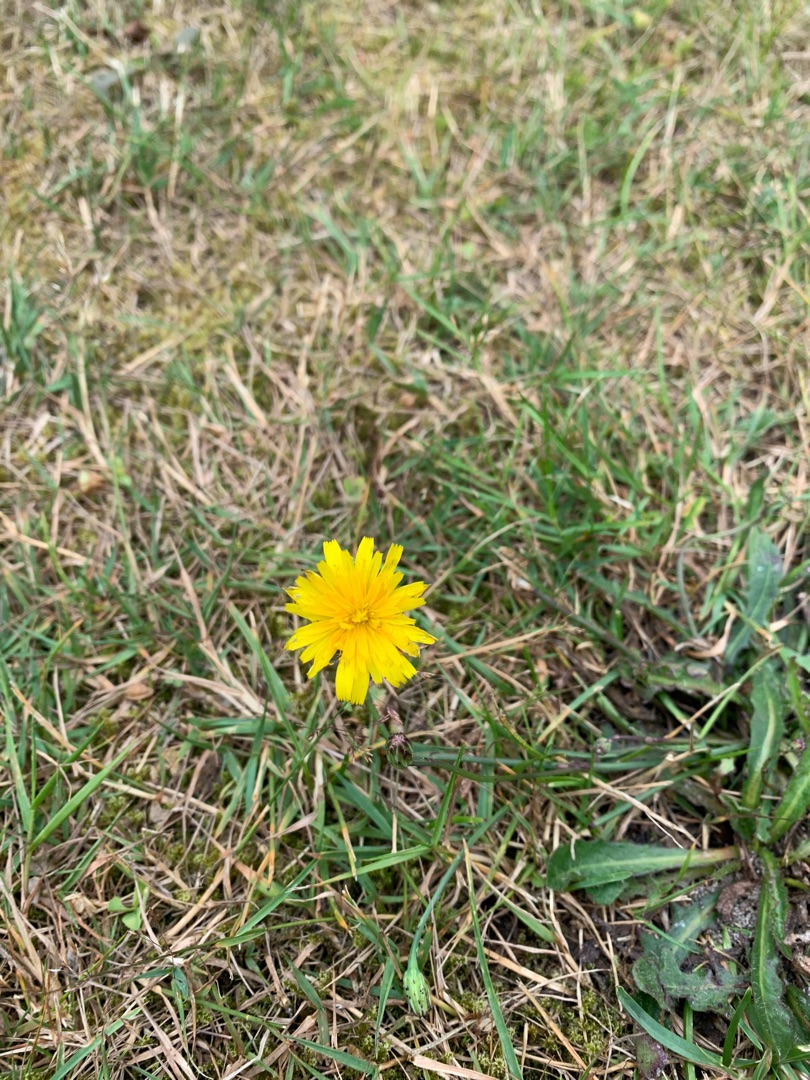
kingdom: Plantae
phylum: Tracheophyta
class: Magnoliopsida
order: Asterales
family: Asteraceae
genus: Hypochaeris
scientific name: Hypochaeris radicata
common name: Almindelig kongepen
